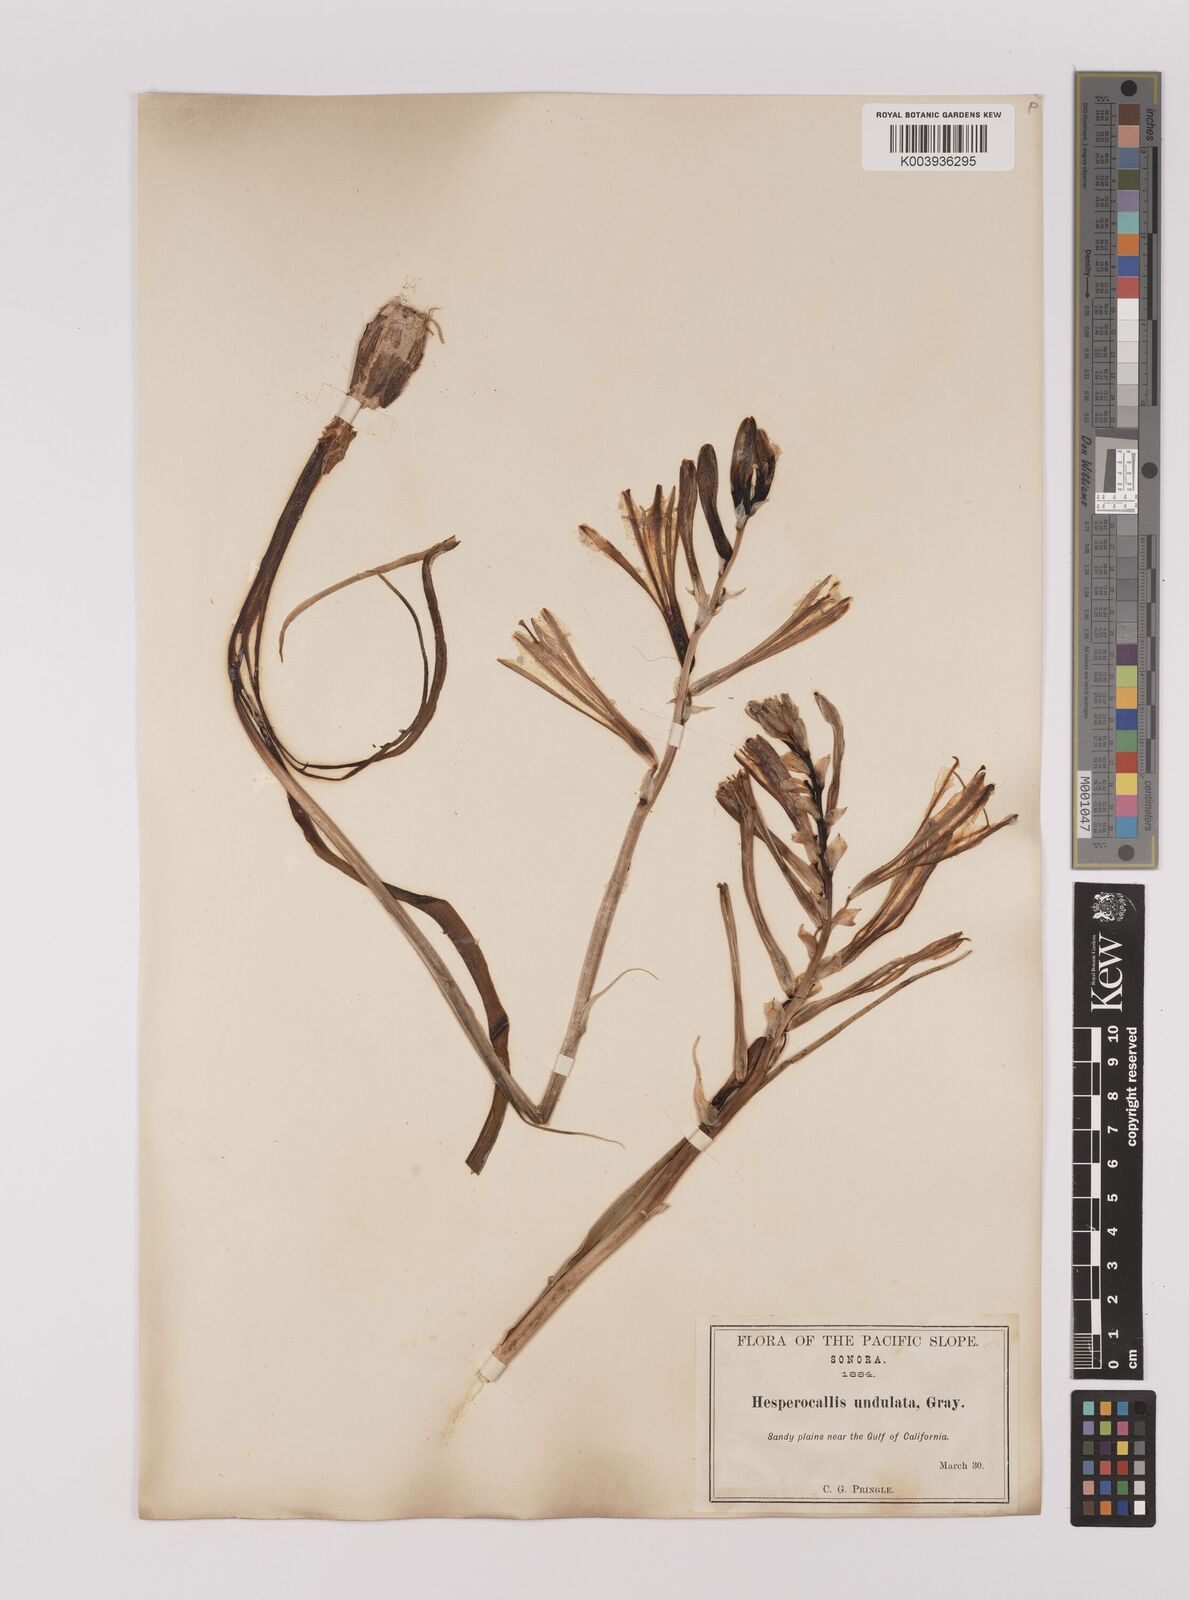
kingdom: Plantae
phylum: Tracheophyta
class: Liliopsida
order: Asparagales
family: Asparagaceae
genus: Hesperocallis
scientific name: Hesperocallis
